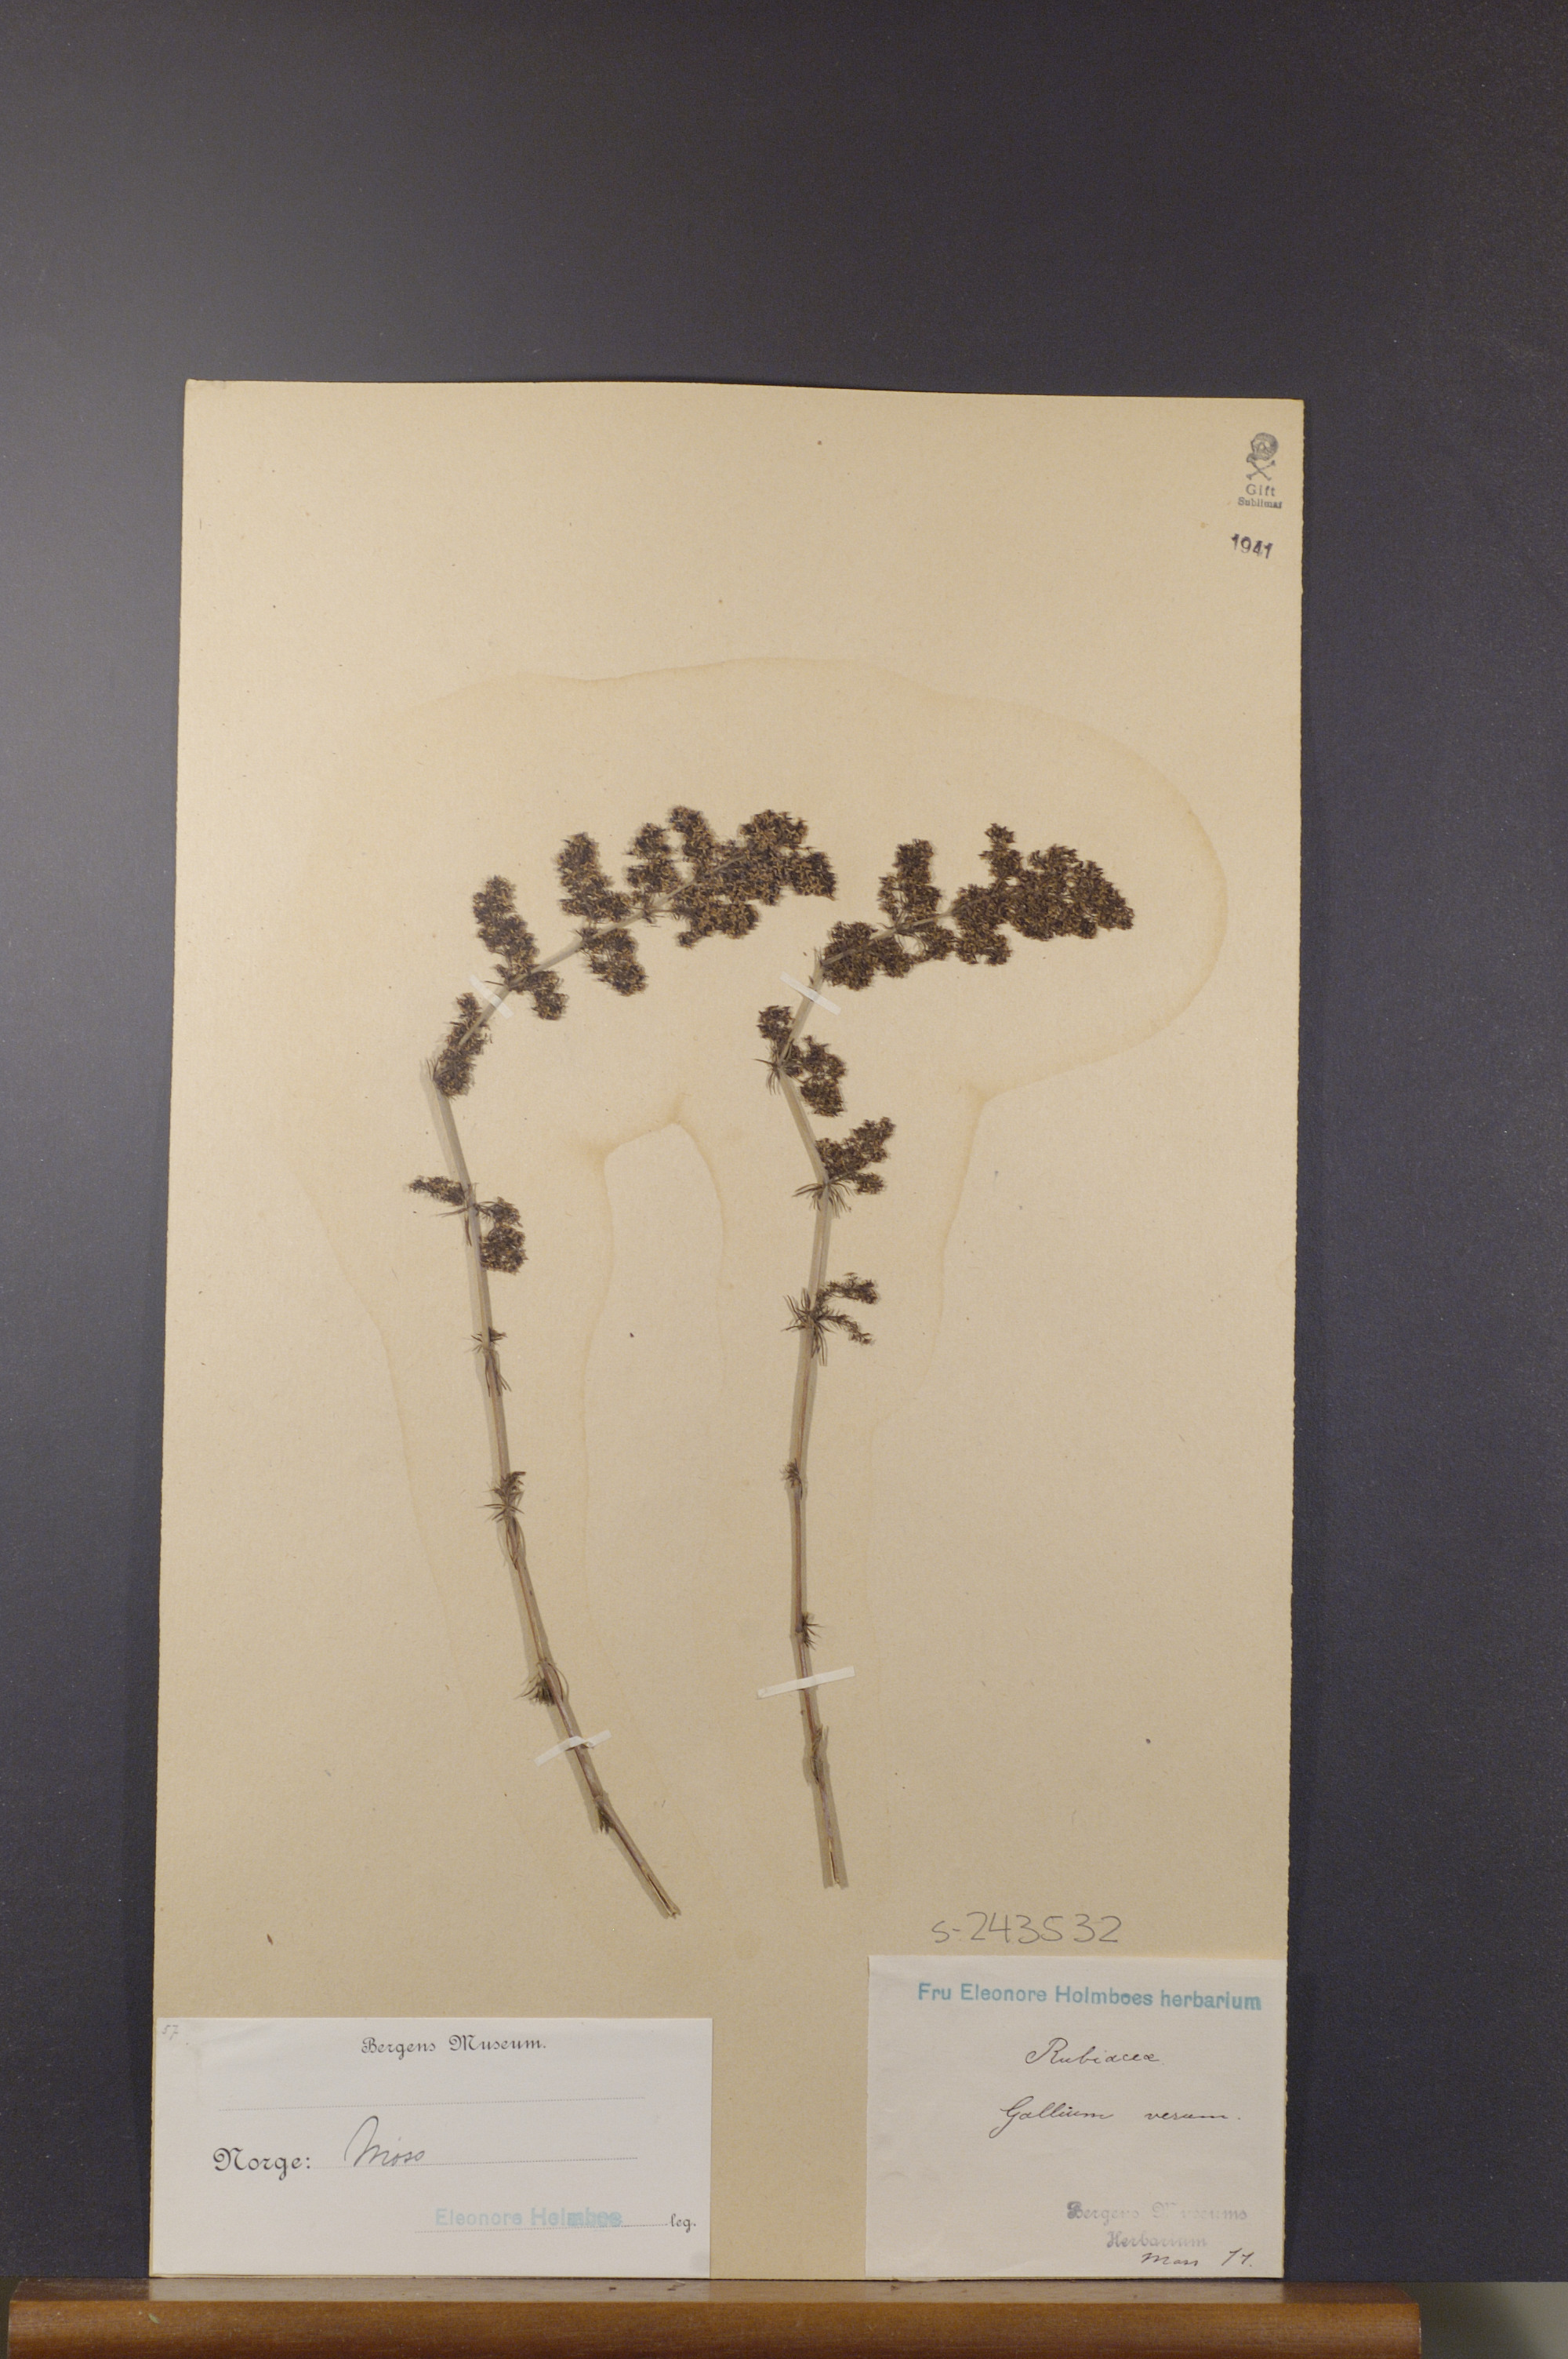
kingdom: Plantae
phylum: Tracheophyta
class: Magnoliopsida
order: Gentianales
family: Rubiaceae
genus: Galium
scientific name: Galium verum
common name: Lady's bedstraw
